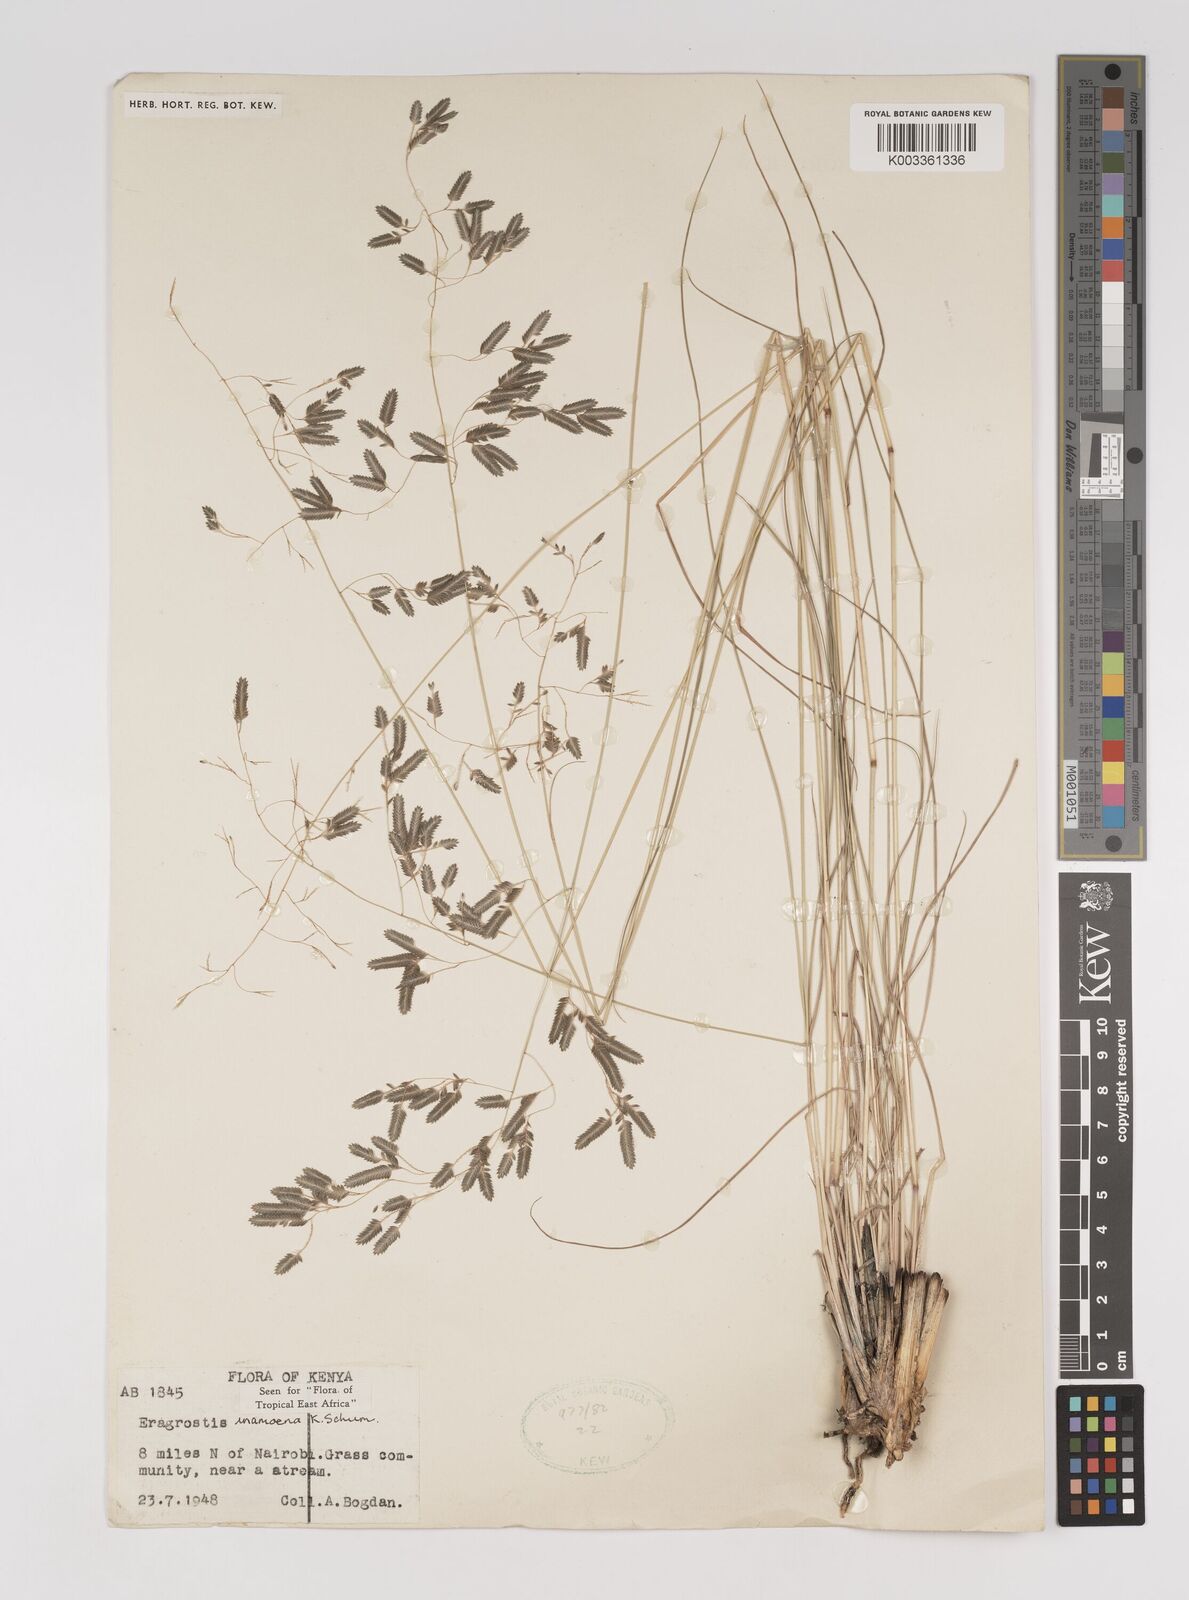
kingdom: Plantae
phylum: Tracheophyta
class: Liliopsida
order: Poales
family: Poaceae
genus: Eragrostis
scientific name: Eragrostis inamoena
